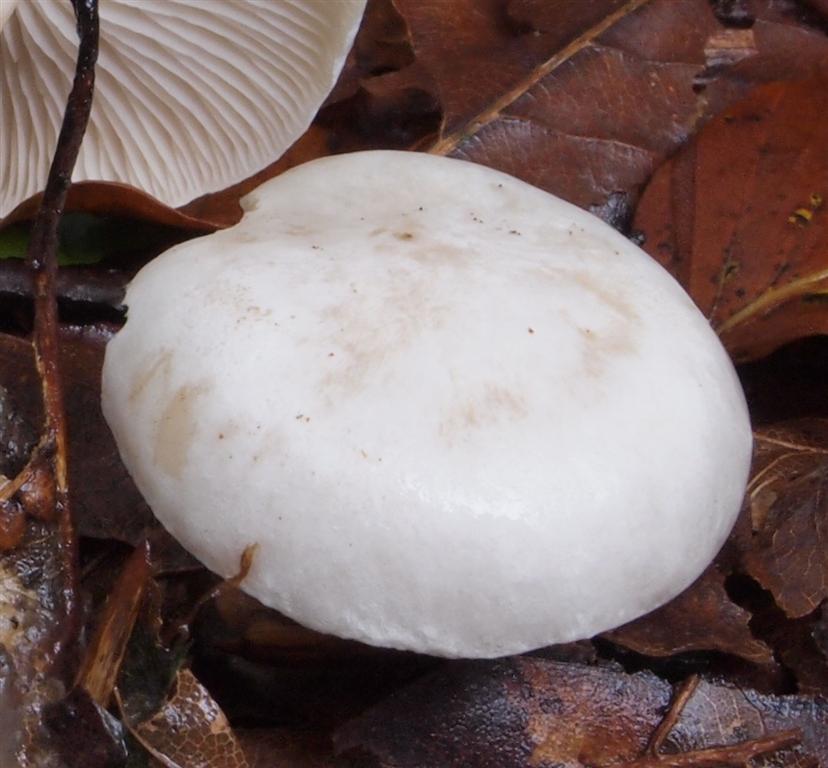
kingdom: Fungi
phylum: Basidiomycota
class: Agaricomycetes
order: Agaricales
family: Tricholomataceae
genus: Clitocybe
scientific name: Clitocybe phyllophila
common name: løv-tragthat
